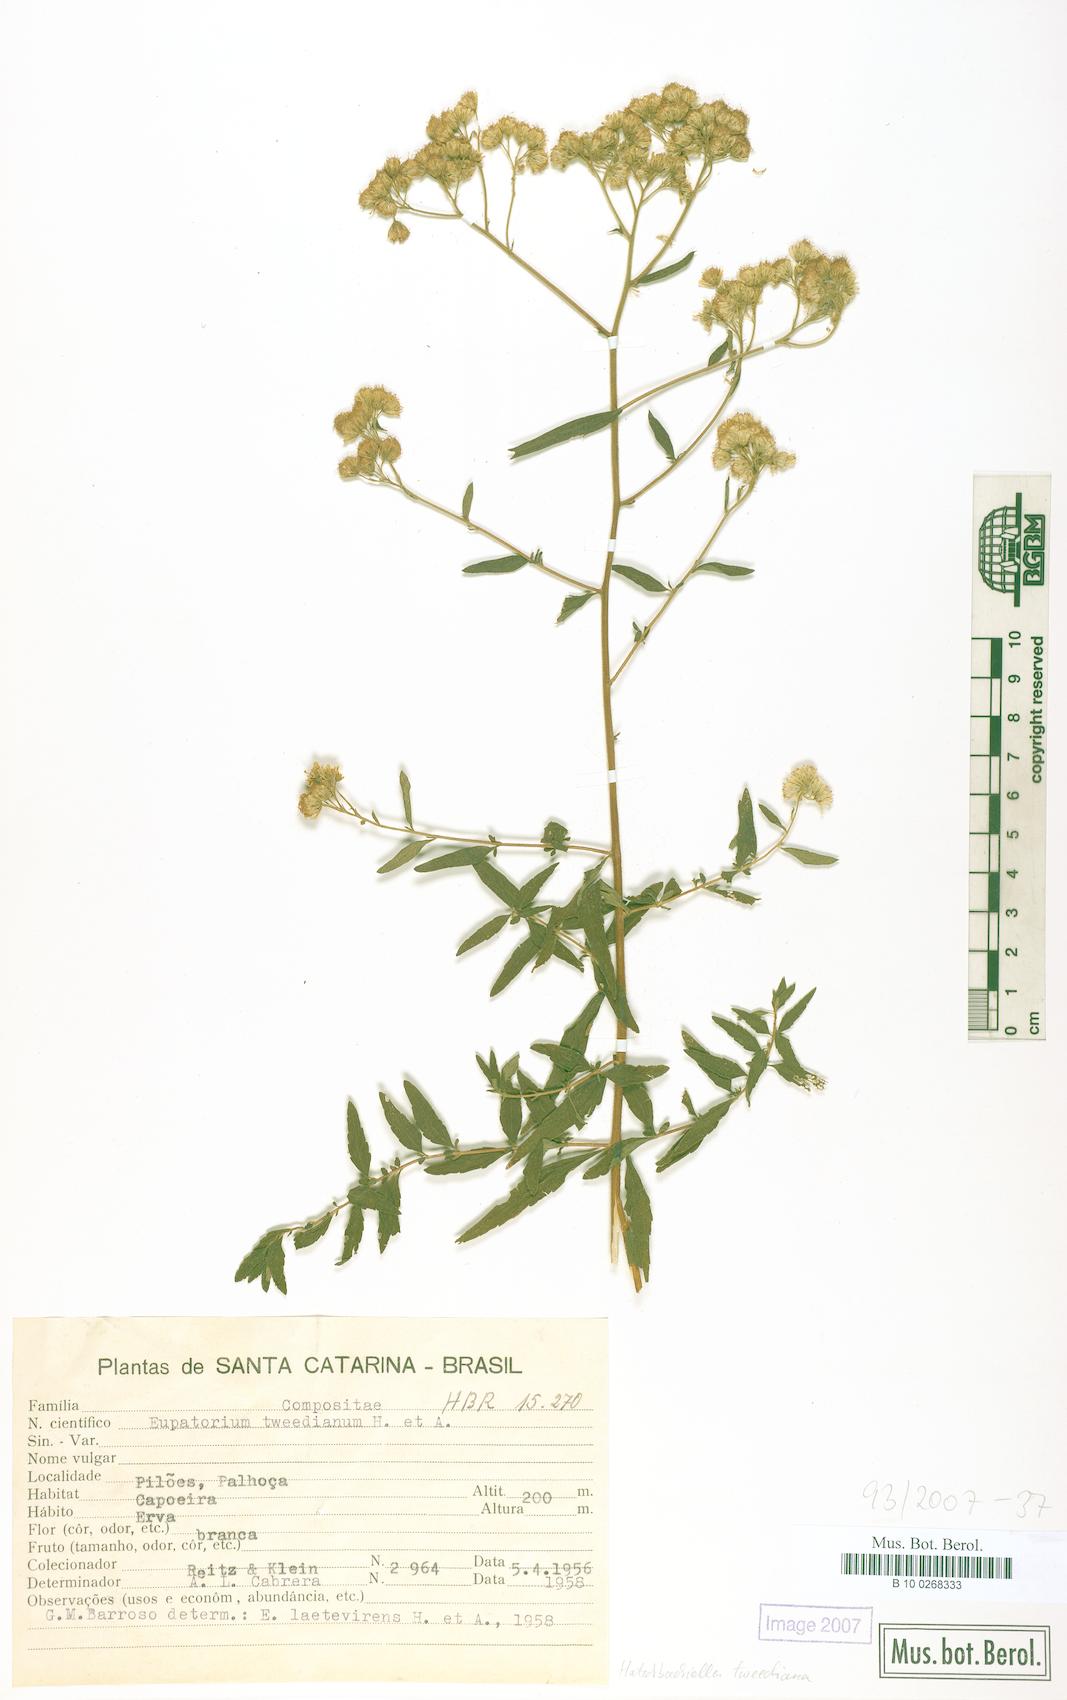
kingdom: Plantae
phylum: Tracheophyta
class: Magnoliopsida
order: Asterales
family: Asteraceae
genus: Hatschbachiella
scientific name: Hatschbachiella tweedieana
